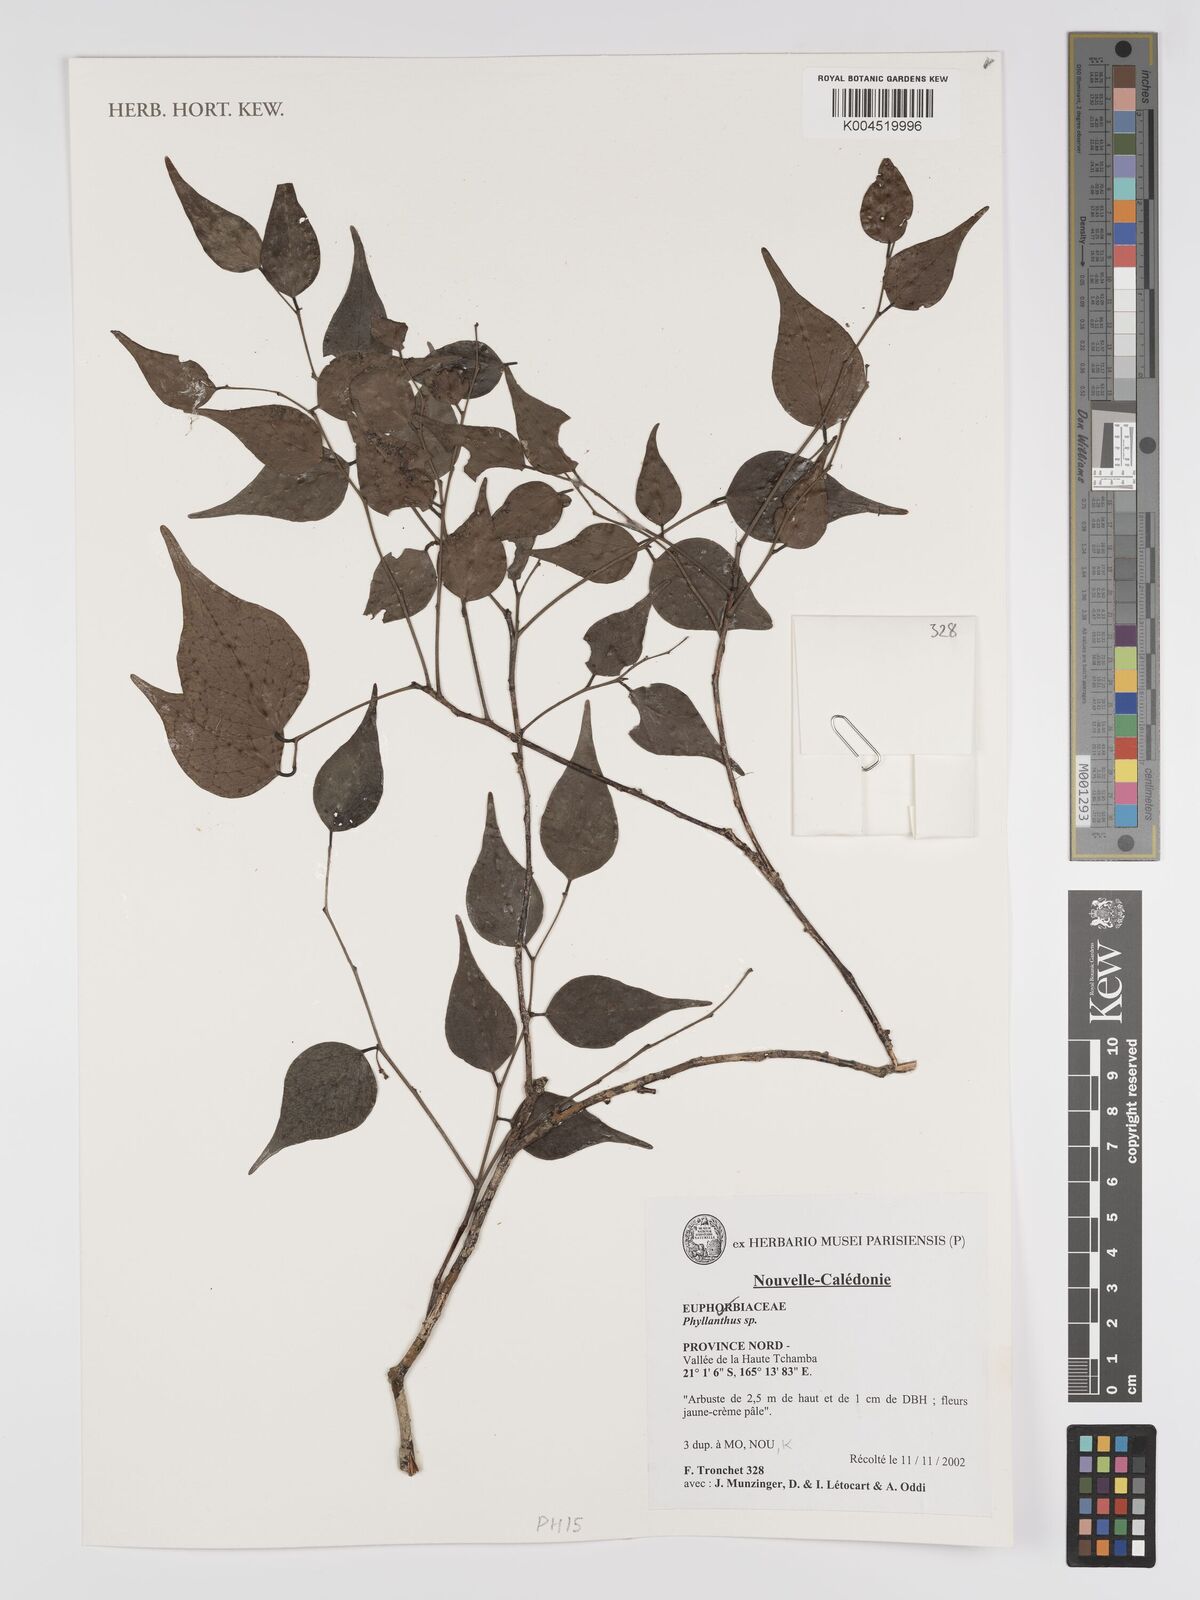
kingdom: Plantae
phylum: Tracheophyta
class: Magnoliopsida
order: Malpighiales
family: Phyllanthaceae
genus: Phyllanthus
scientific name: Phyllanthus
